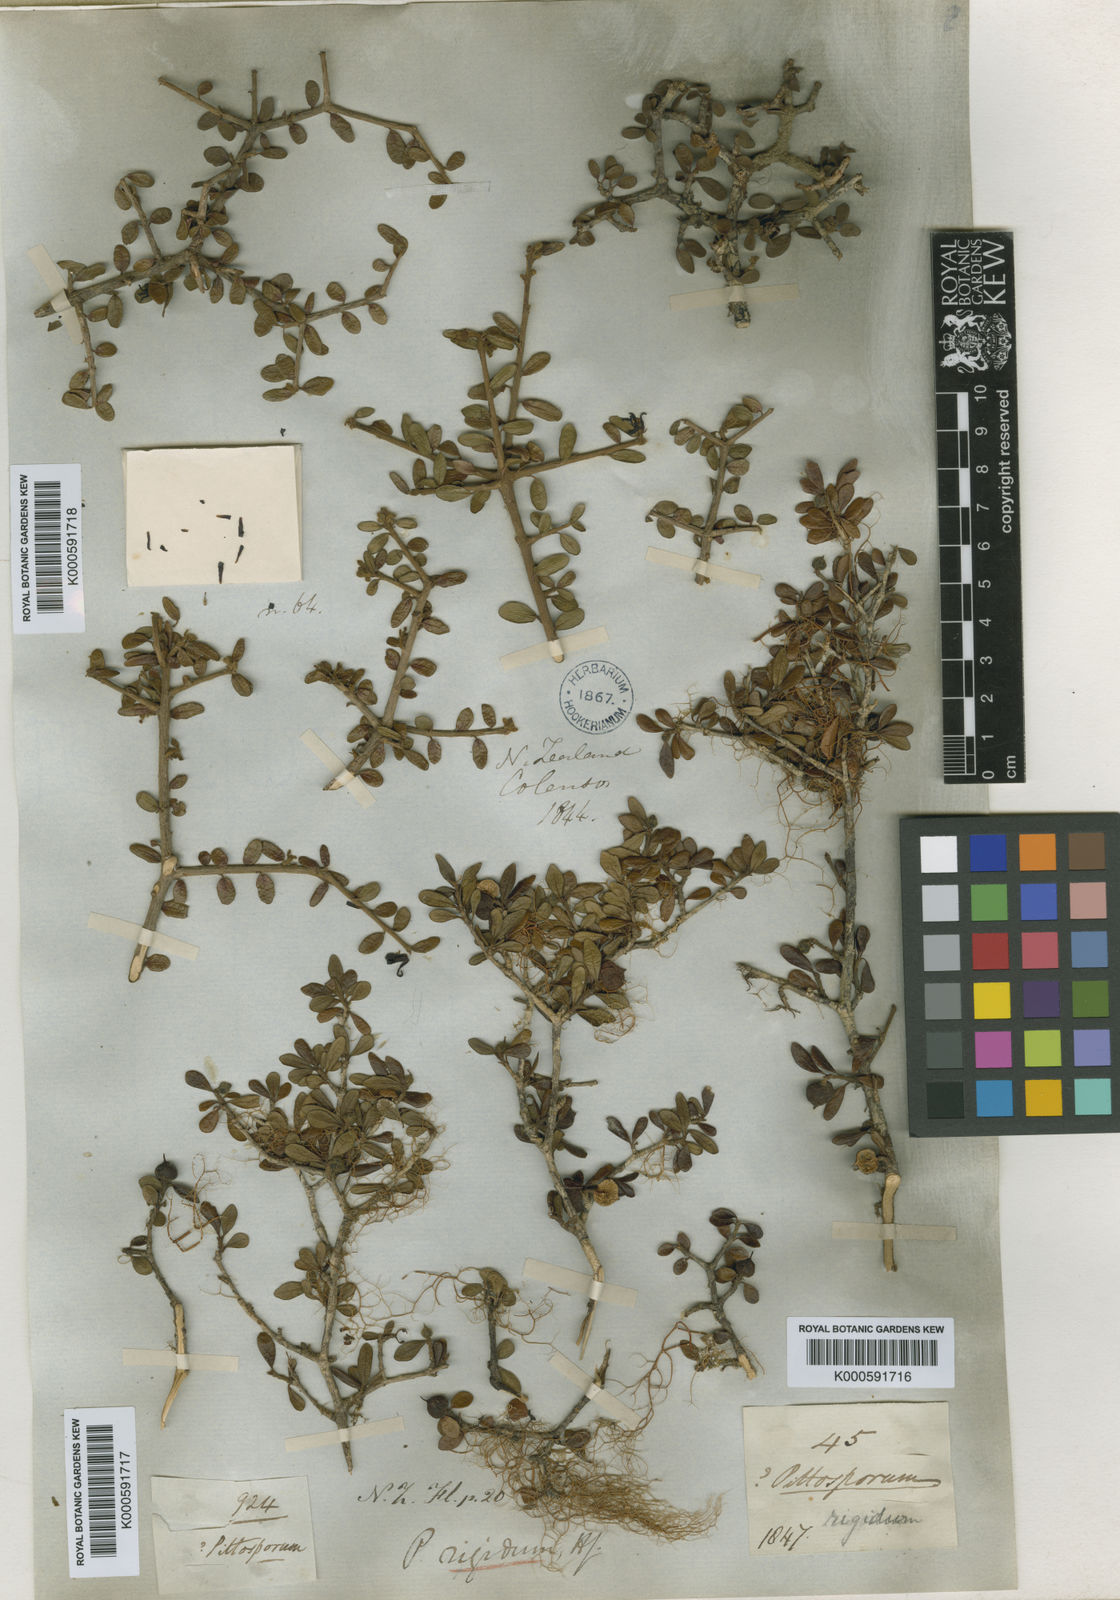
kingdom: Plantae
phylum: Tracheophyta
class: Magnoliopsida
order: Apiales
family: Pittosporaceae
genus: Pittosporum
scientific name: Pittosporum rigidum
